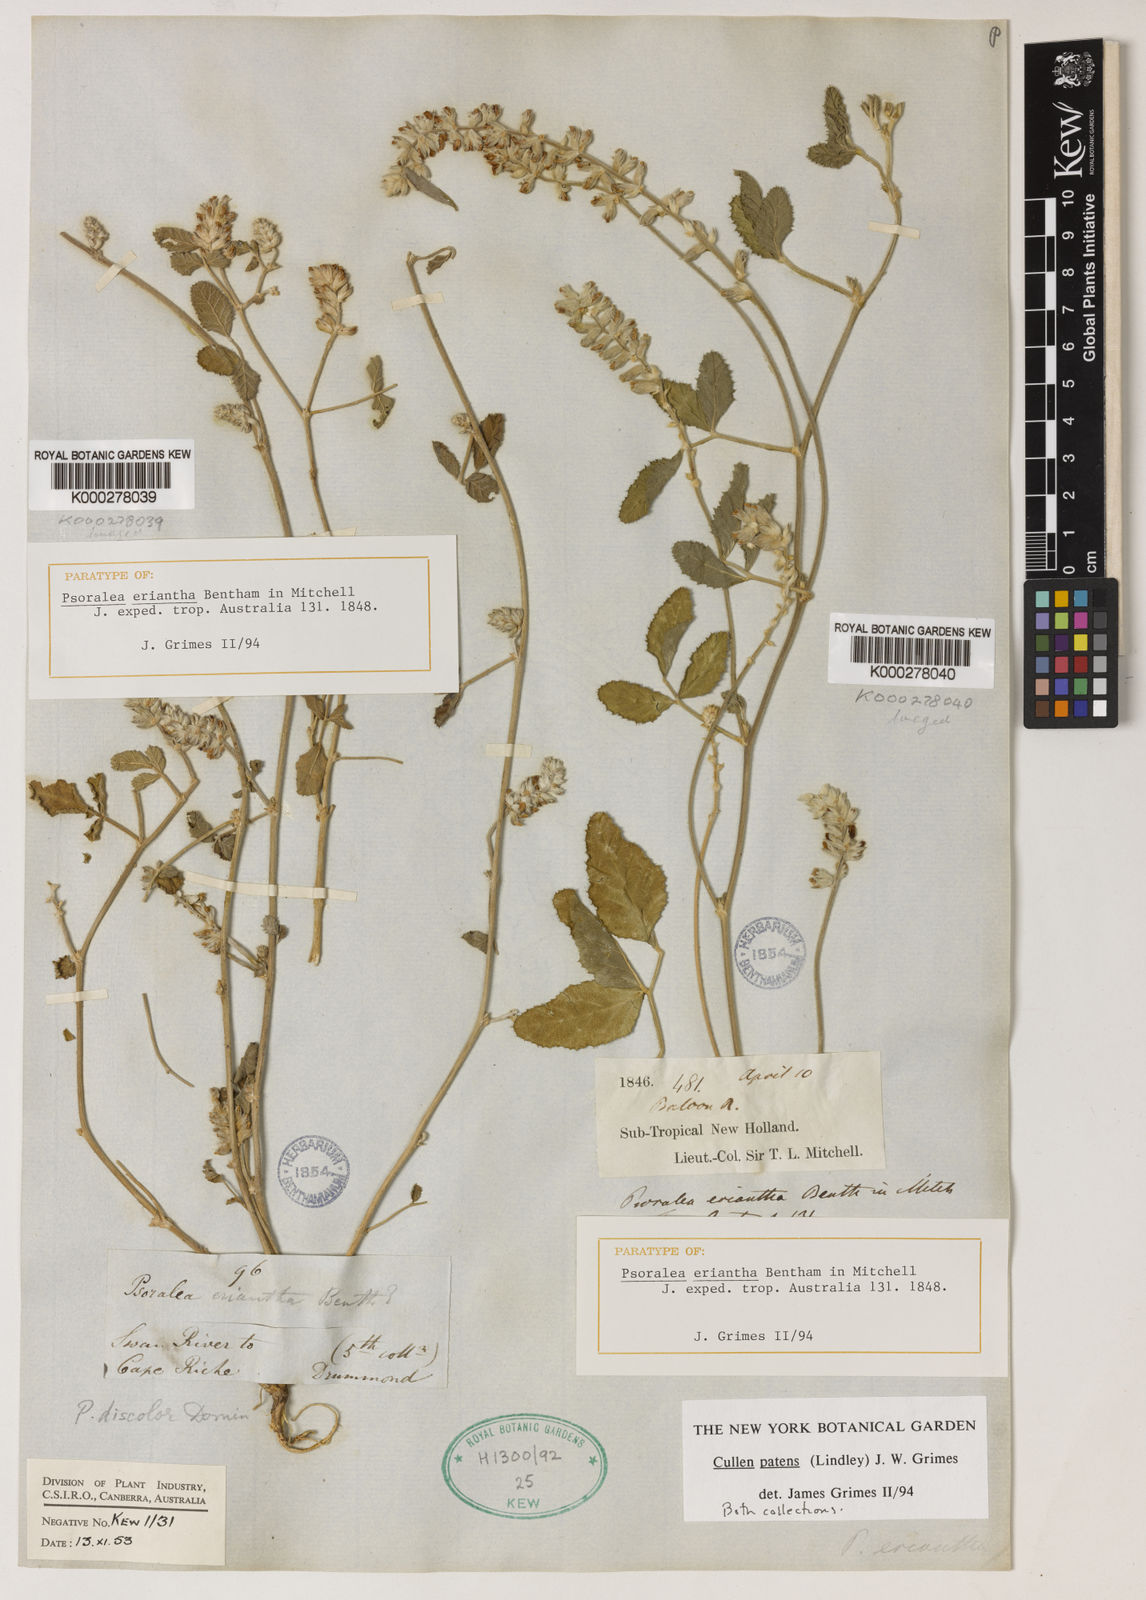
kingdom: Plantae
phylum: Tracheophyta
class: Magnoliopsida
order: Fabales
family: Fabaceae
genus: Cullen
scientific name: Cullen patens
